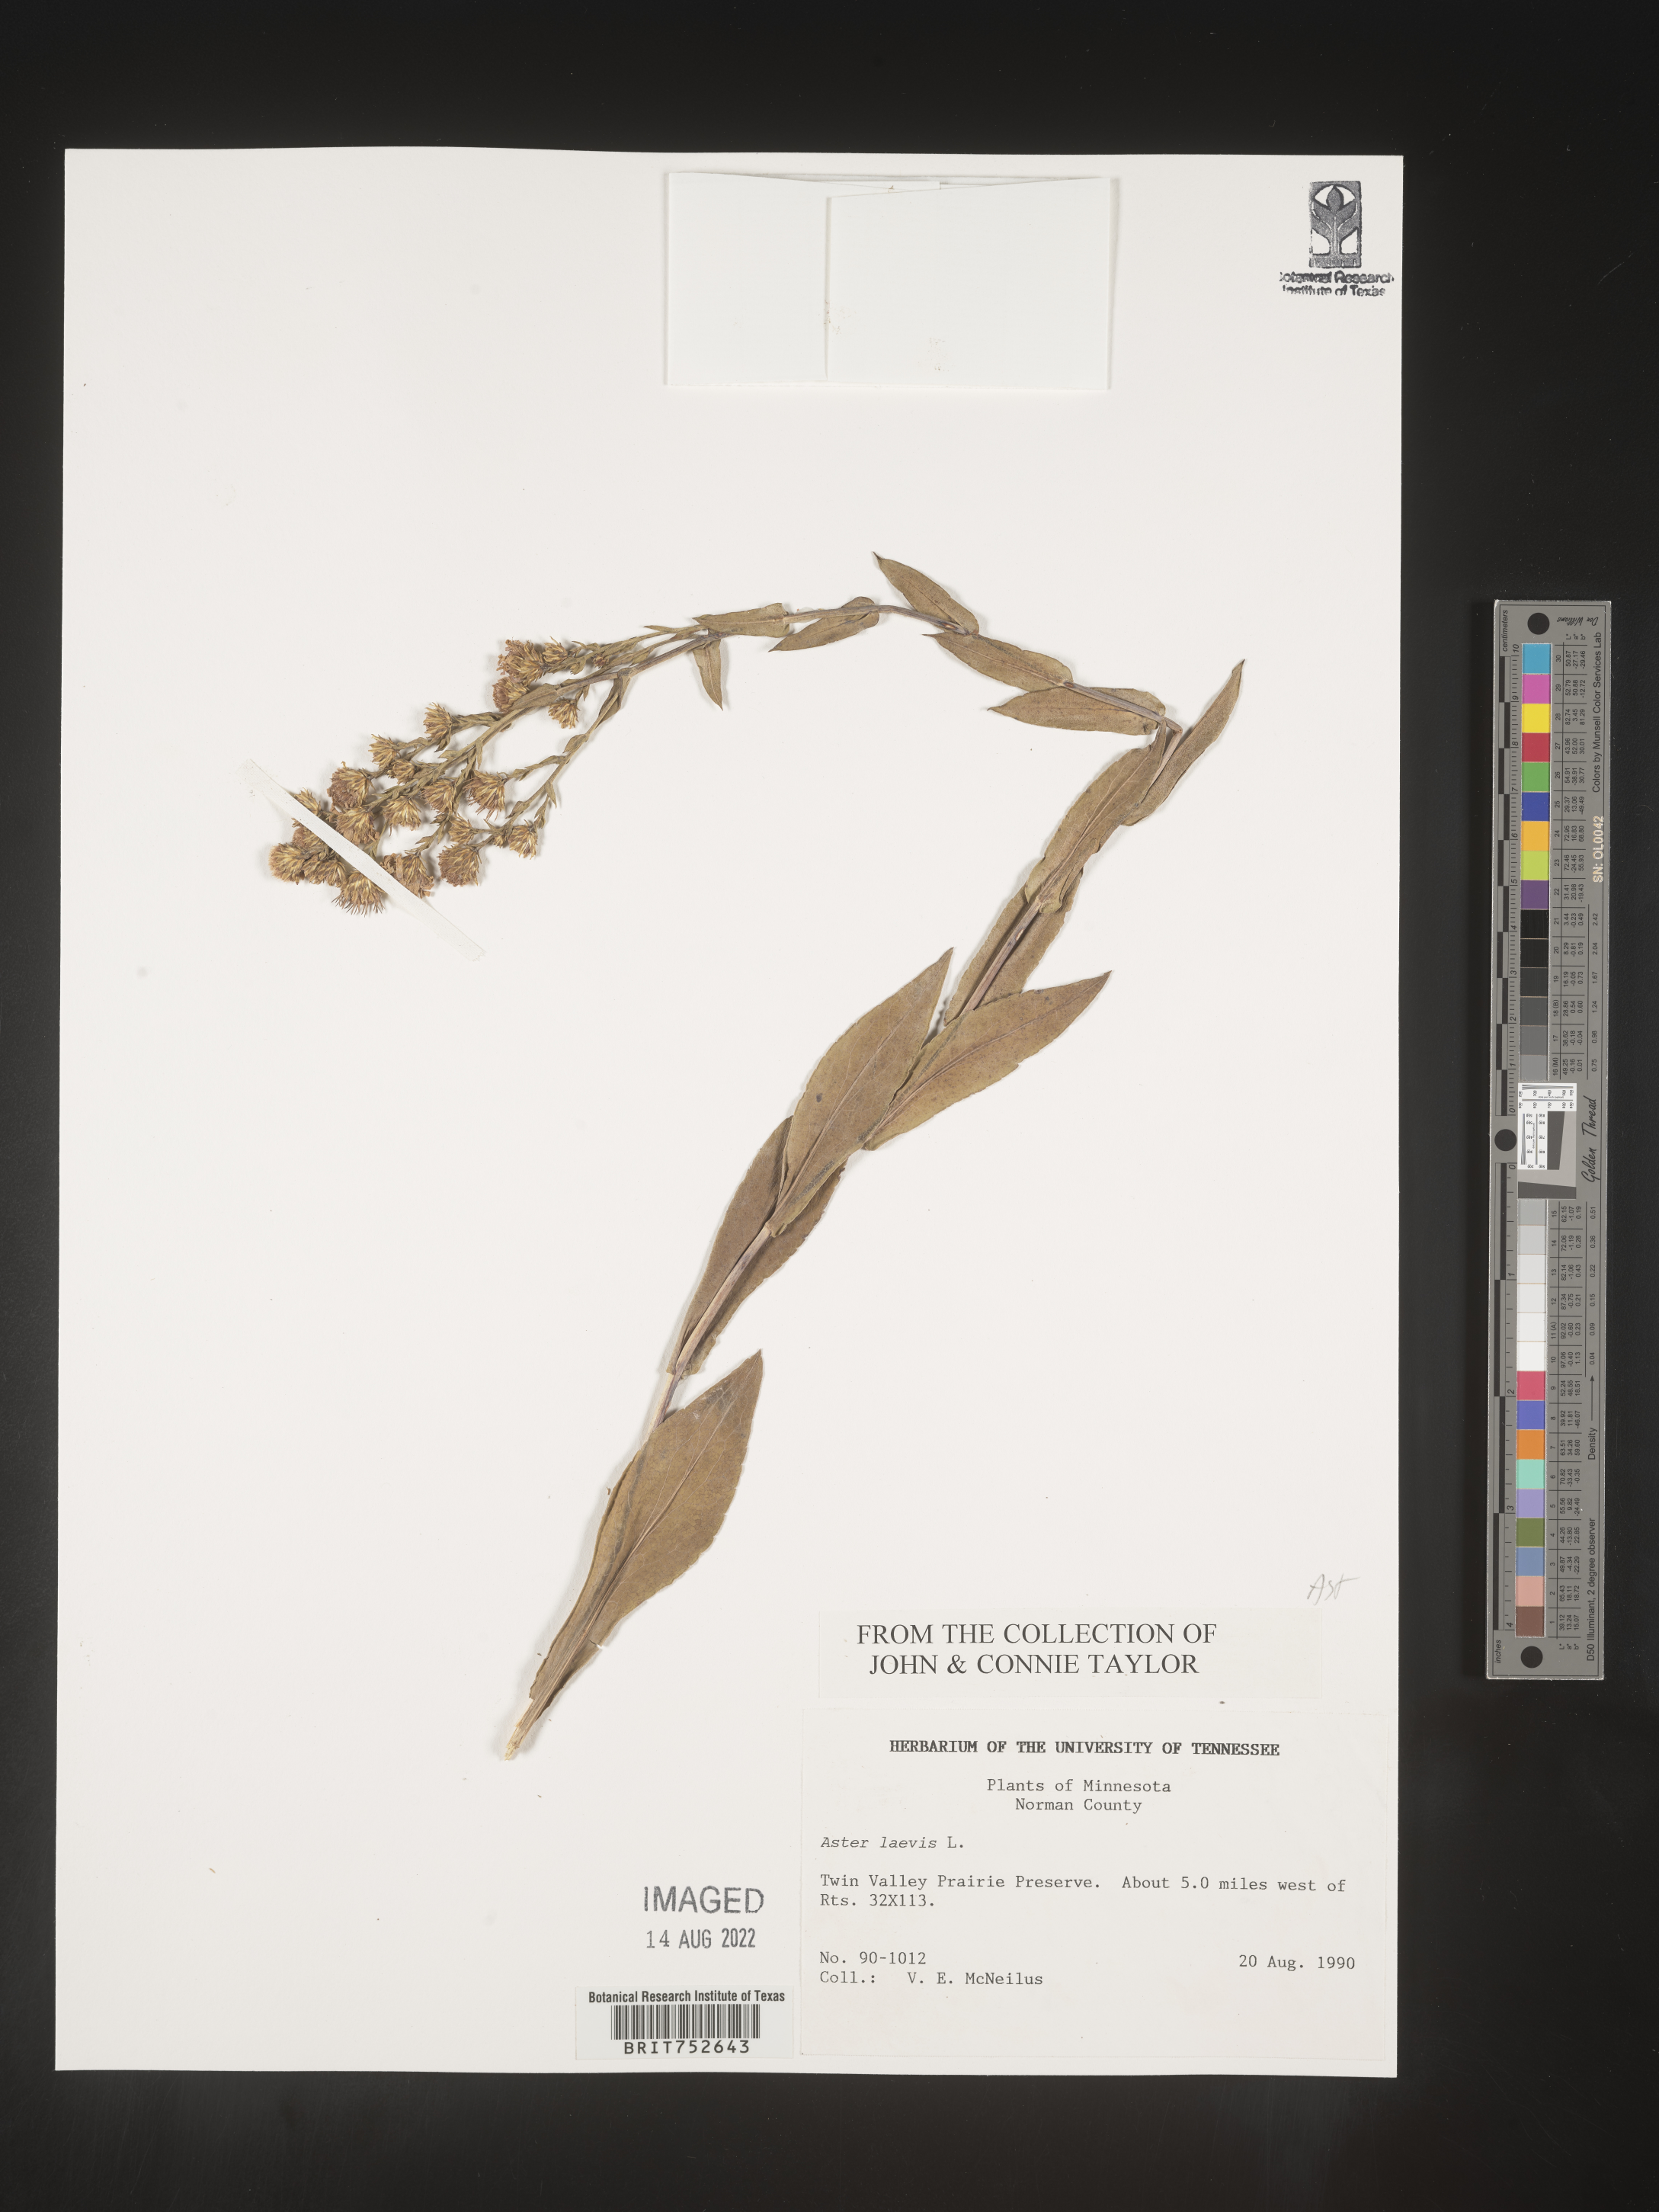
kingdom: Plantae
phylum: Tracheophyta
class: Magnoliopsida
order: Asterales
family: Asteraceae
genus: Symphyotrichum
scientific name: Symphyotrichum laeve
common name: Glaucous aster
